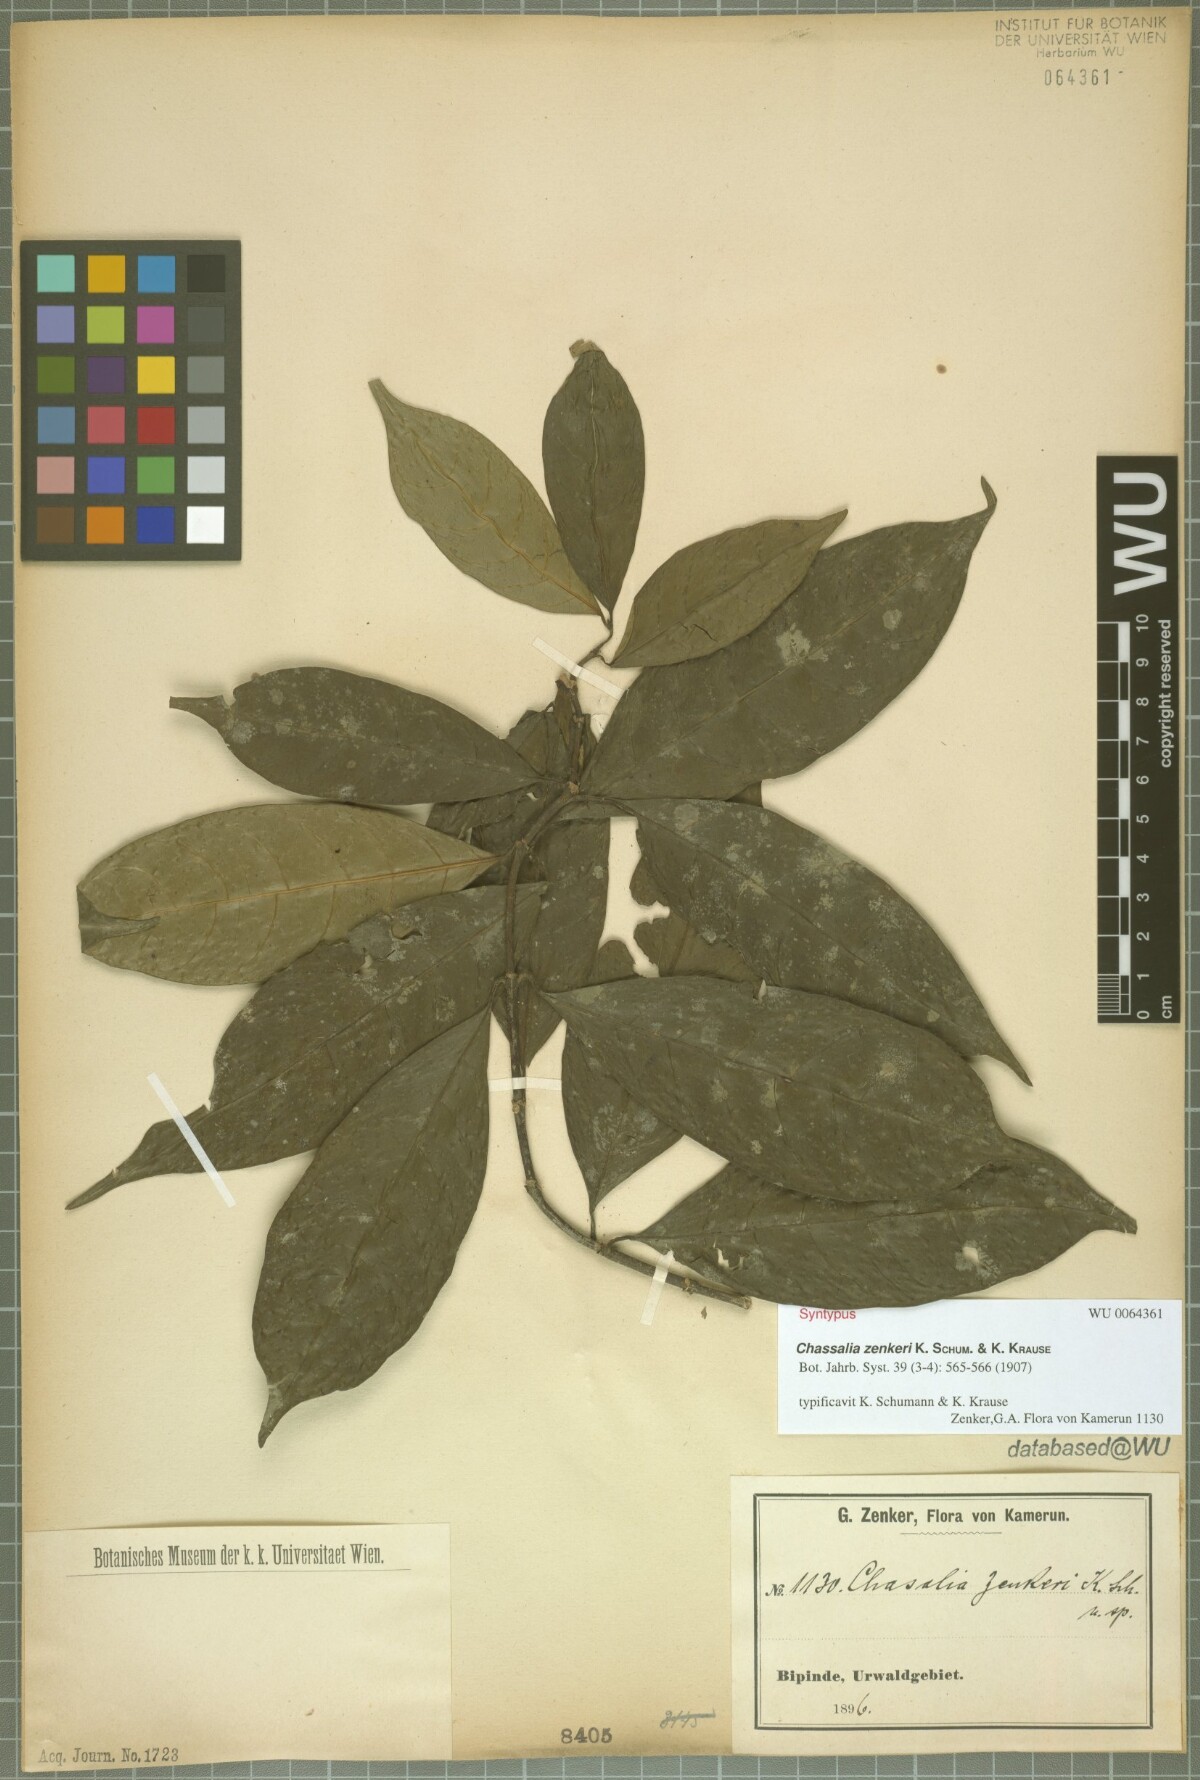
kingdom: Plantae
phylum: Tracheophyta
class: Magnoliopsida
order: Gentianales
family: Rubiaceae
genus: Chassalia
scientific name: Chassalia zenkeri
